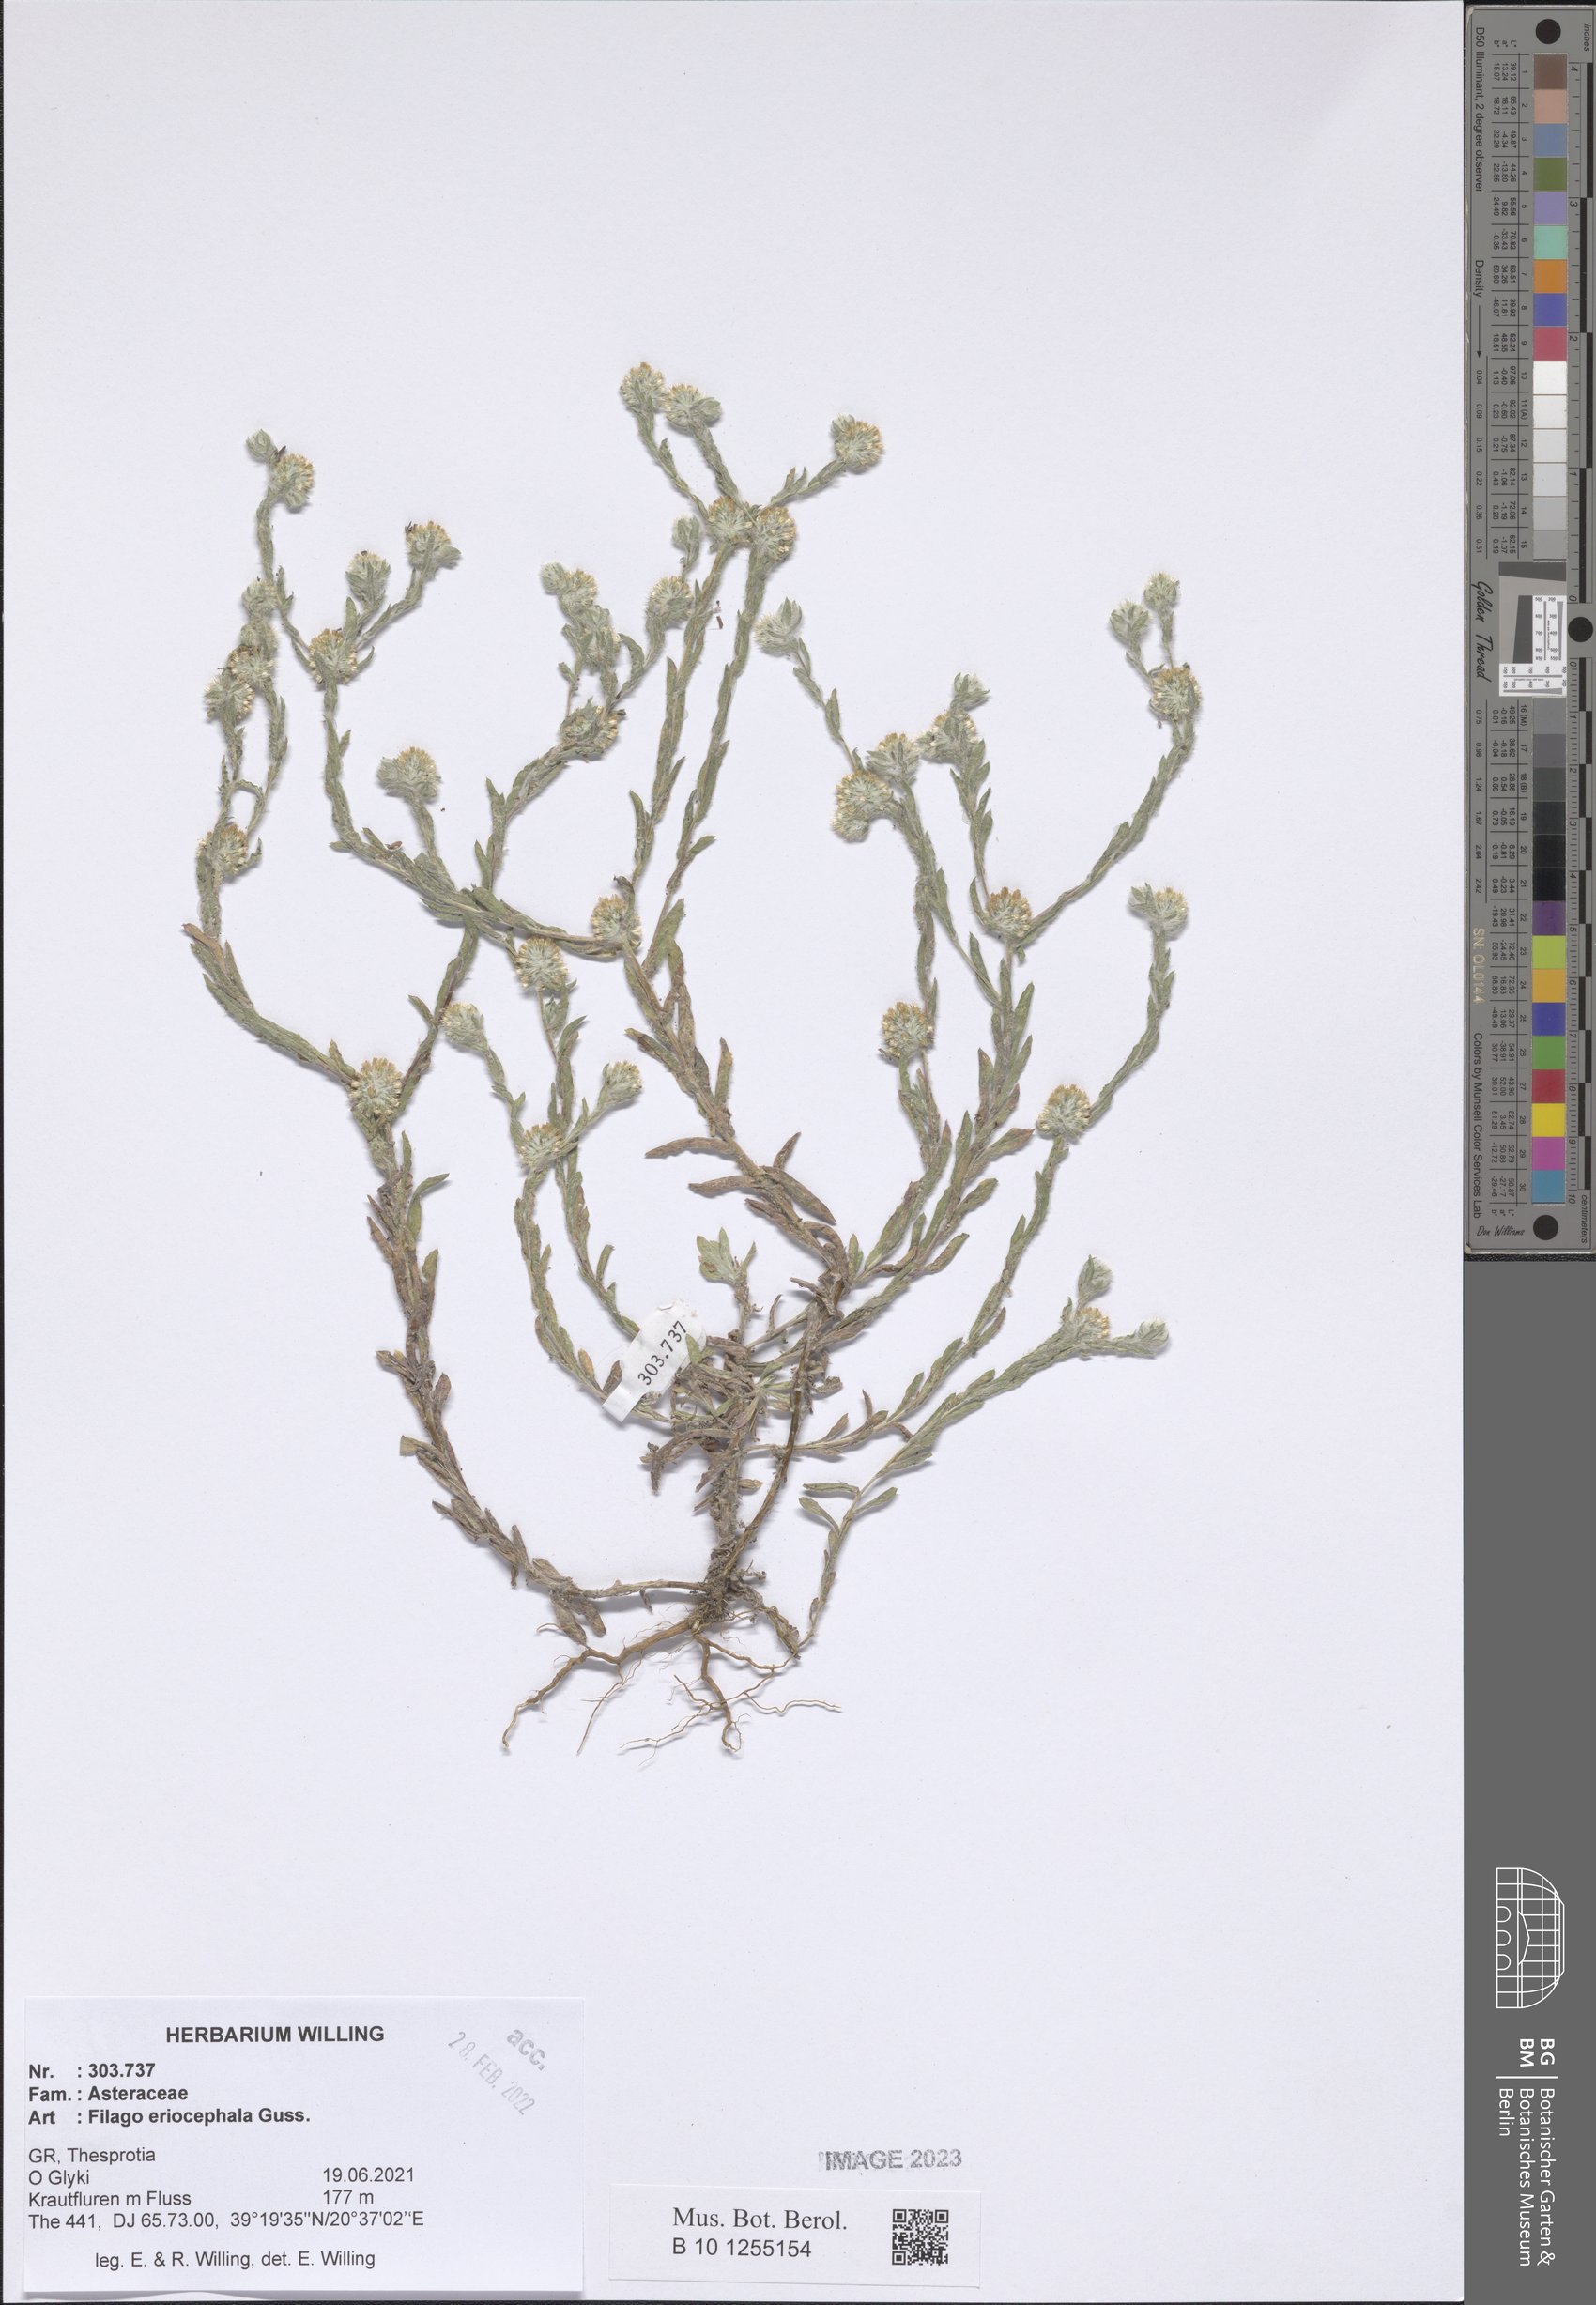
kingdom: Plantae
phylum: Tracheophyta
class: Magnoliopsida
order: Asterales
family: Asteraceae
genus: Filago
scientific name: Filago eriocephala
